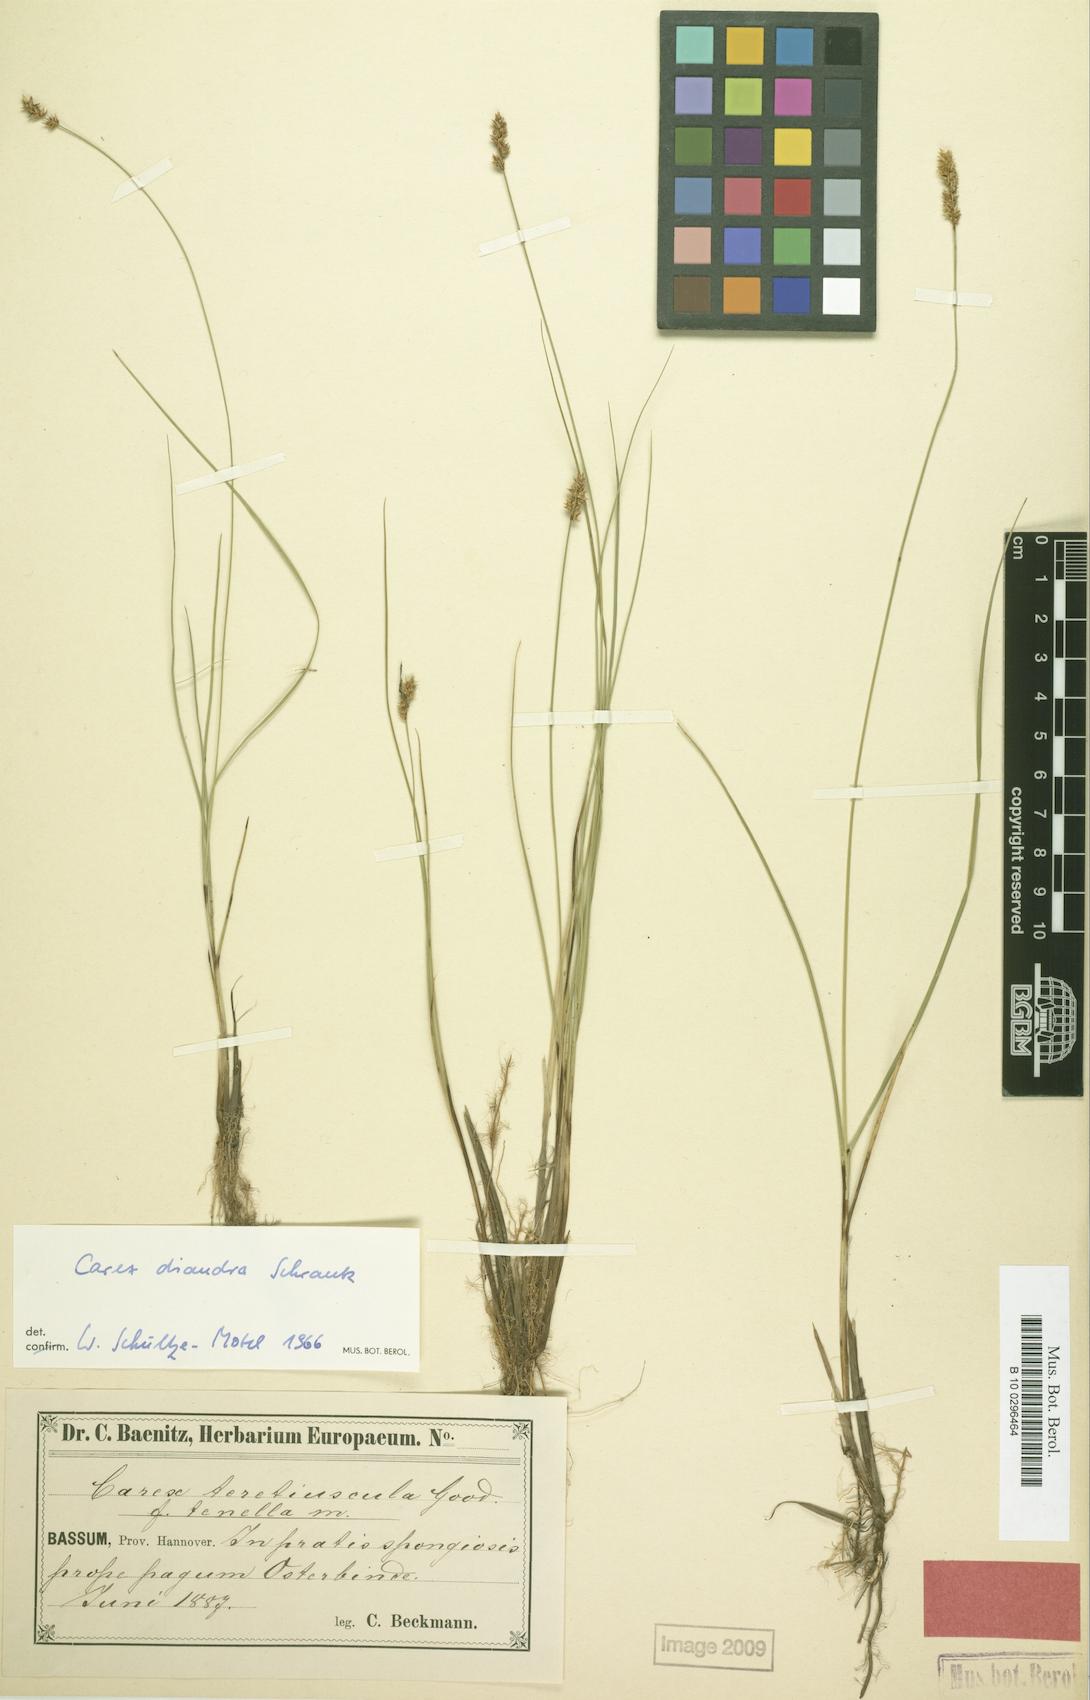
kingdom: Plantae
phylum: Tracheophyta
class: Liliopsida
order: Poales
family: Cyperaceae
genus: Carex
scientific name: Carex diandra
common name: Lesser tussock-sedge
